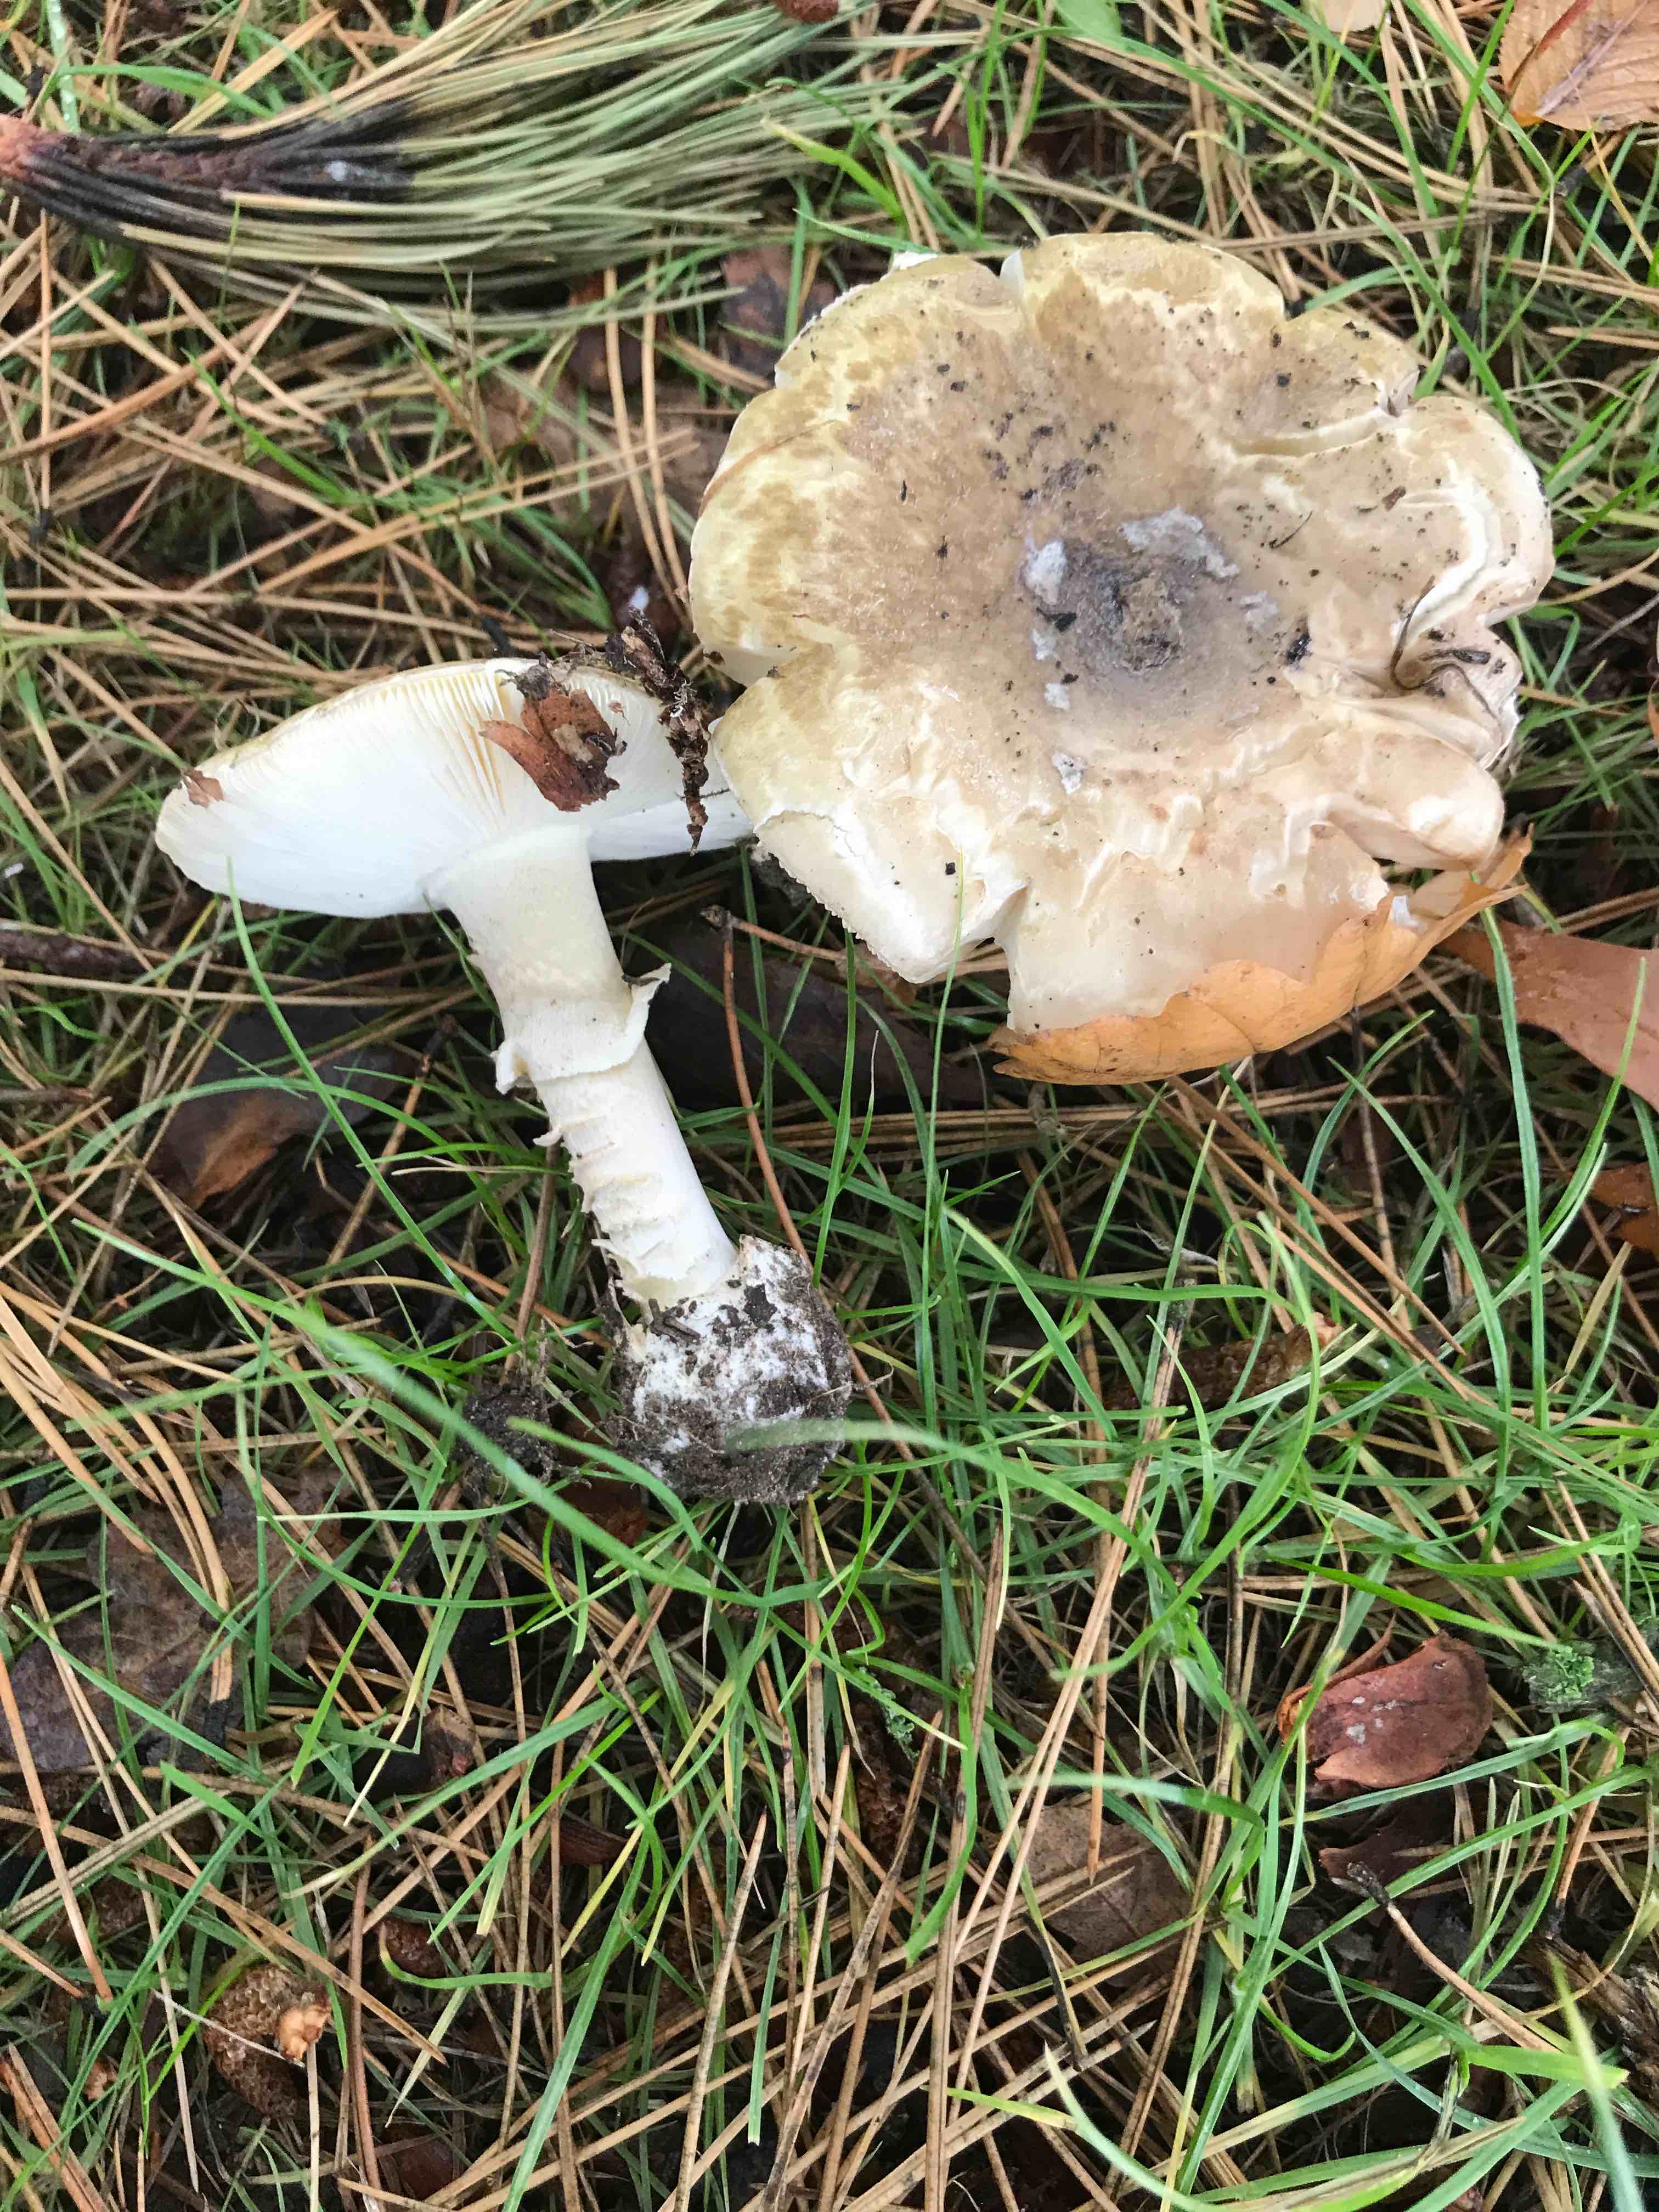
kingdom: Fungi
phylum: Basidiomycota
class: Agaricomycetes
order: Agaricales
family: Amanitaceae
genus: Amanita
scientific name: Amanita phalloides
